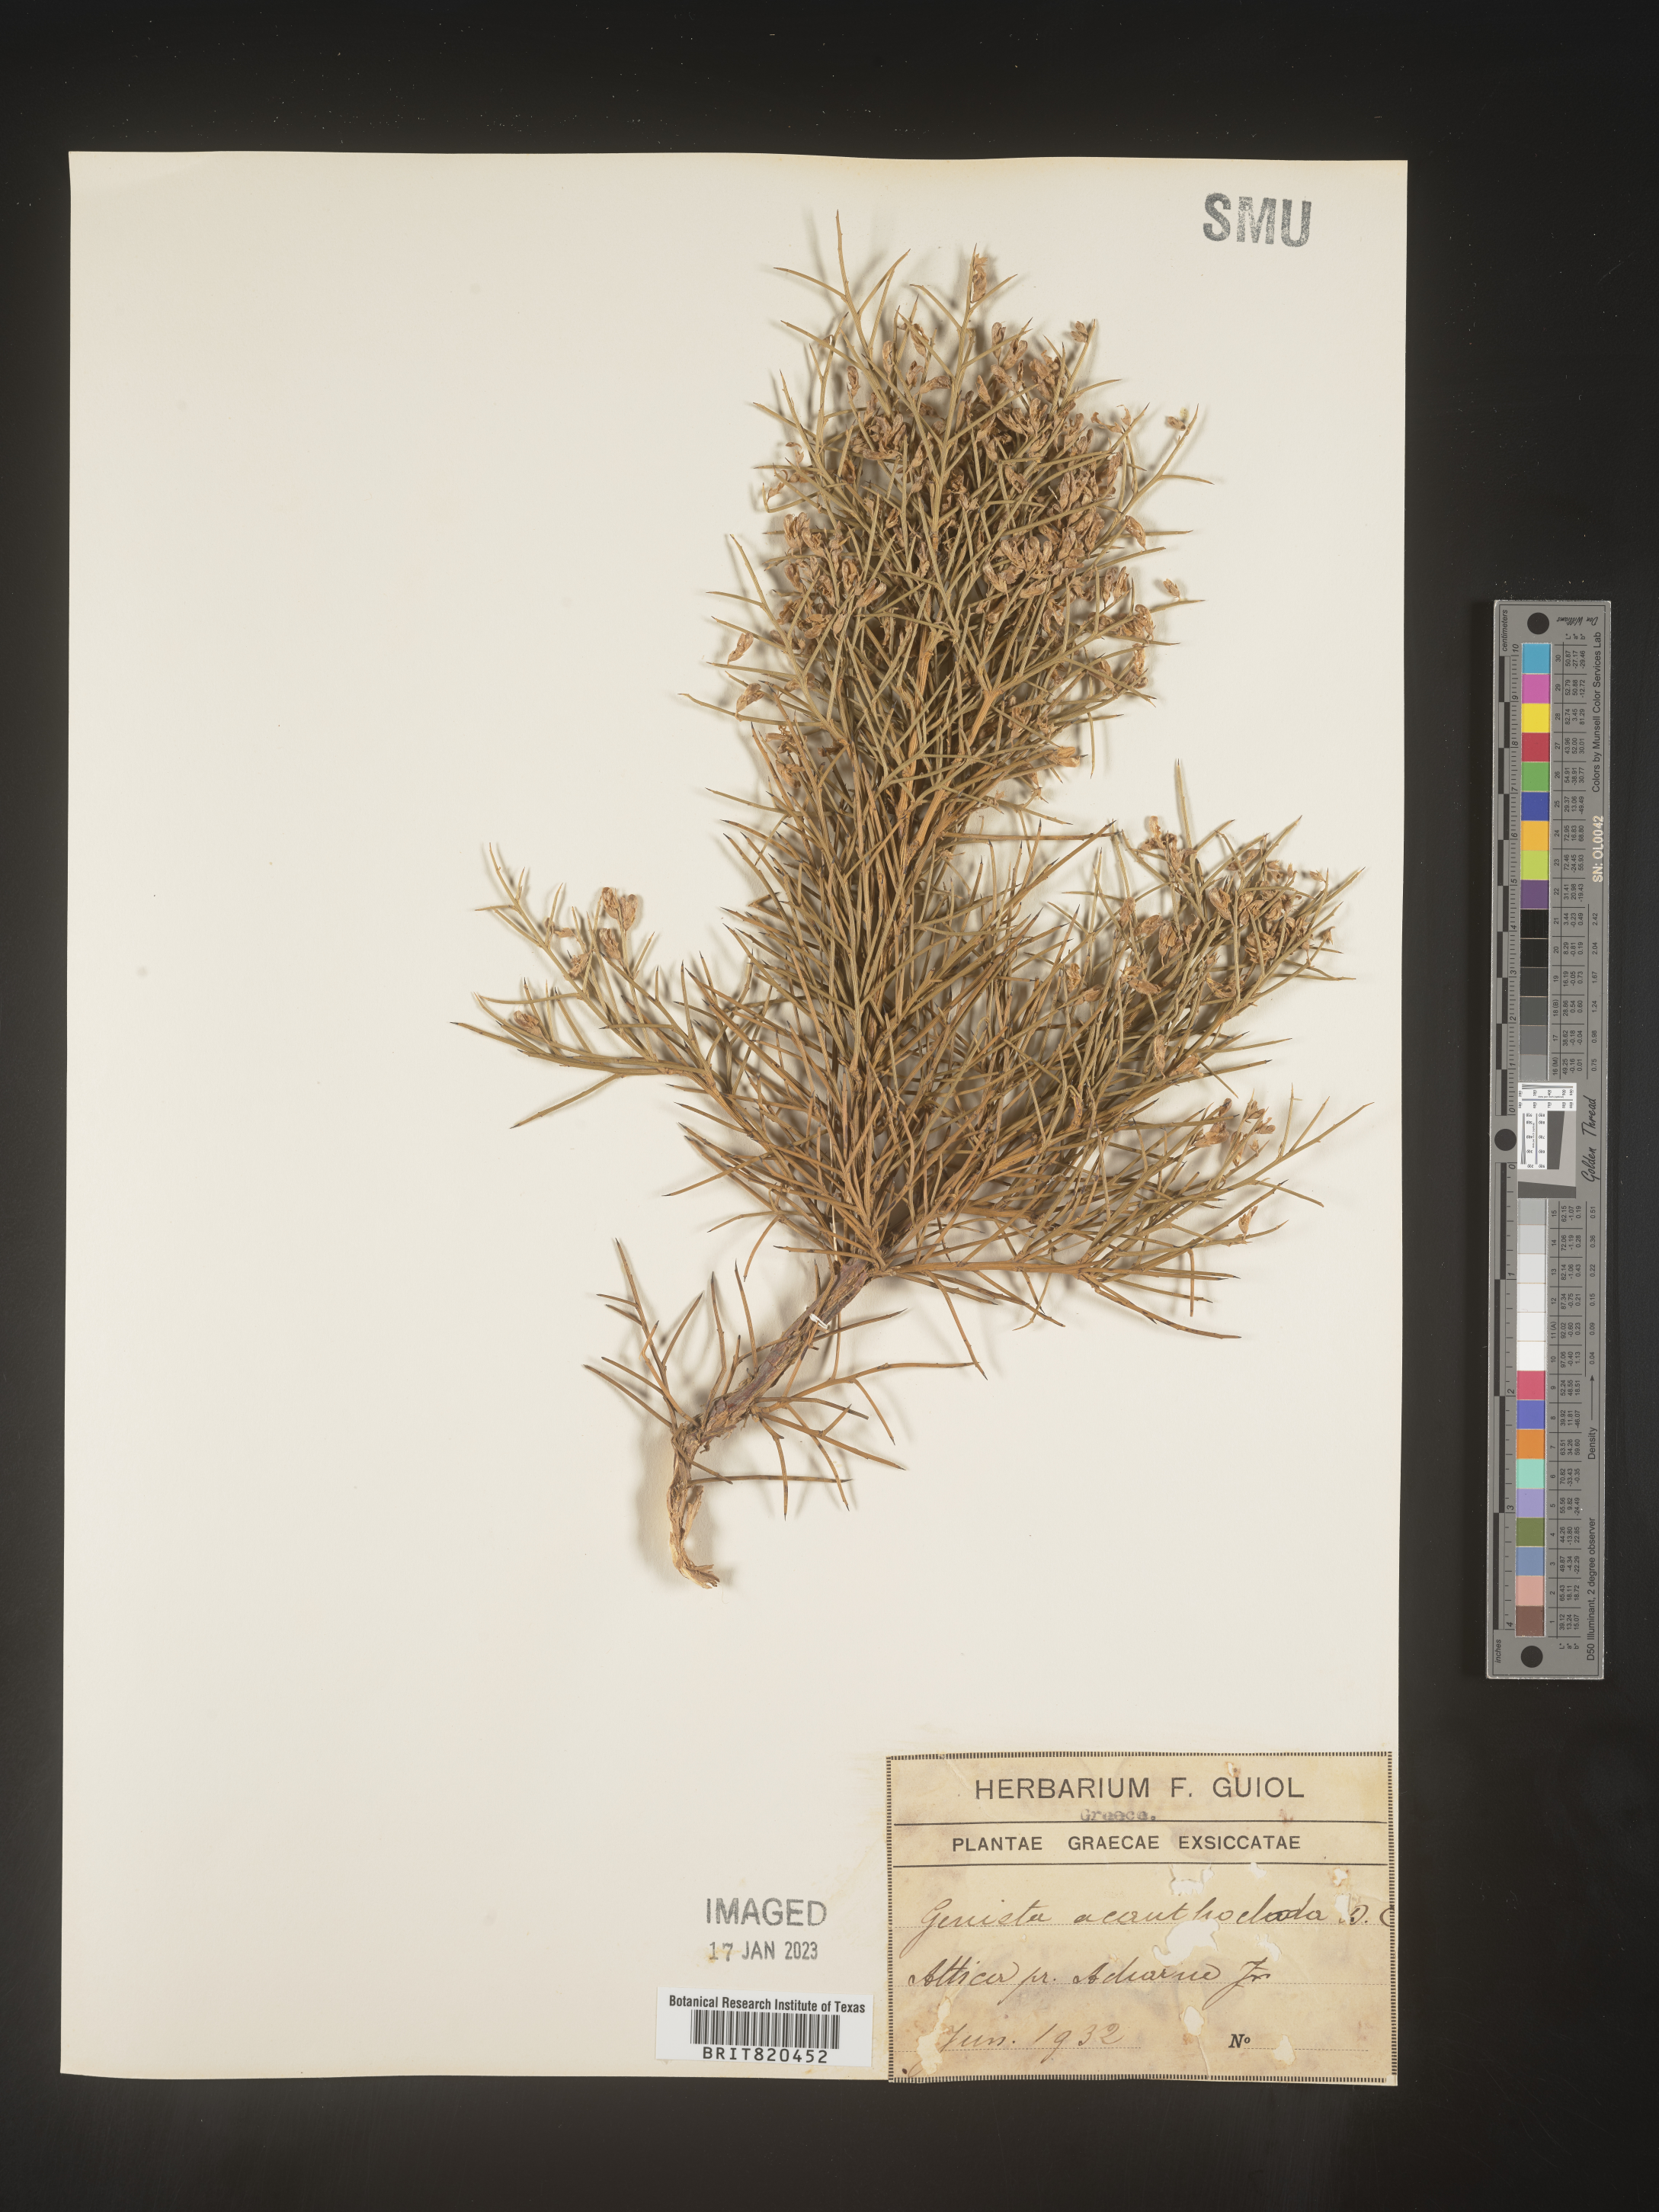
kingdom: Plantae
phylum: Tracheophyta
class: Magnoliopsida
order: Fabales
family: Fabaceae
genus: Genista
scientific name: Genista
